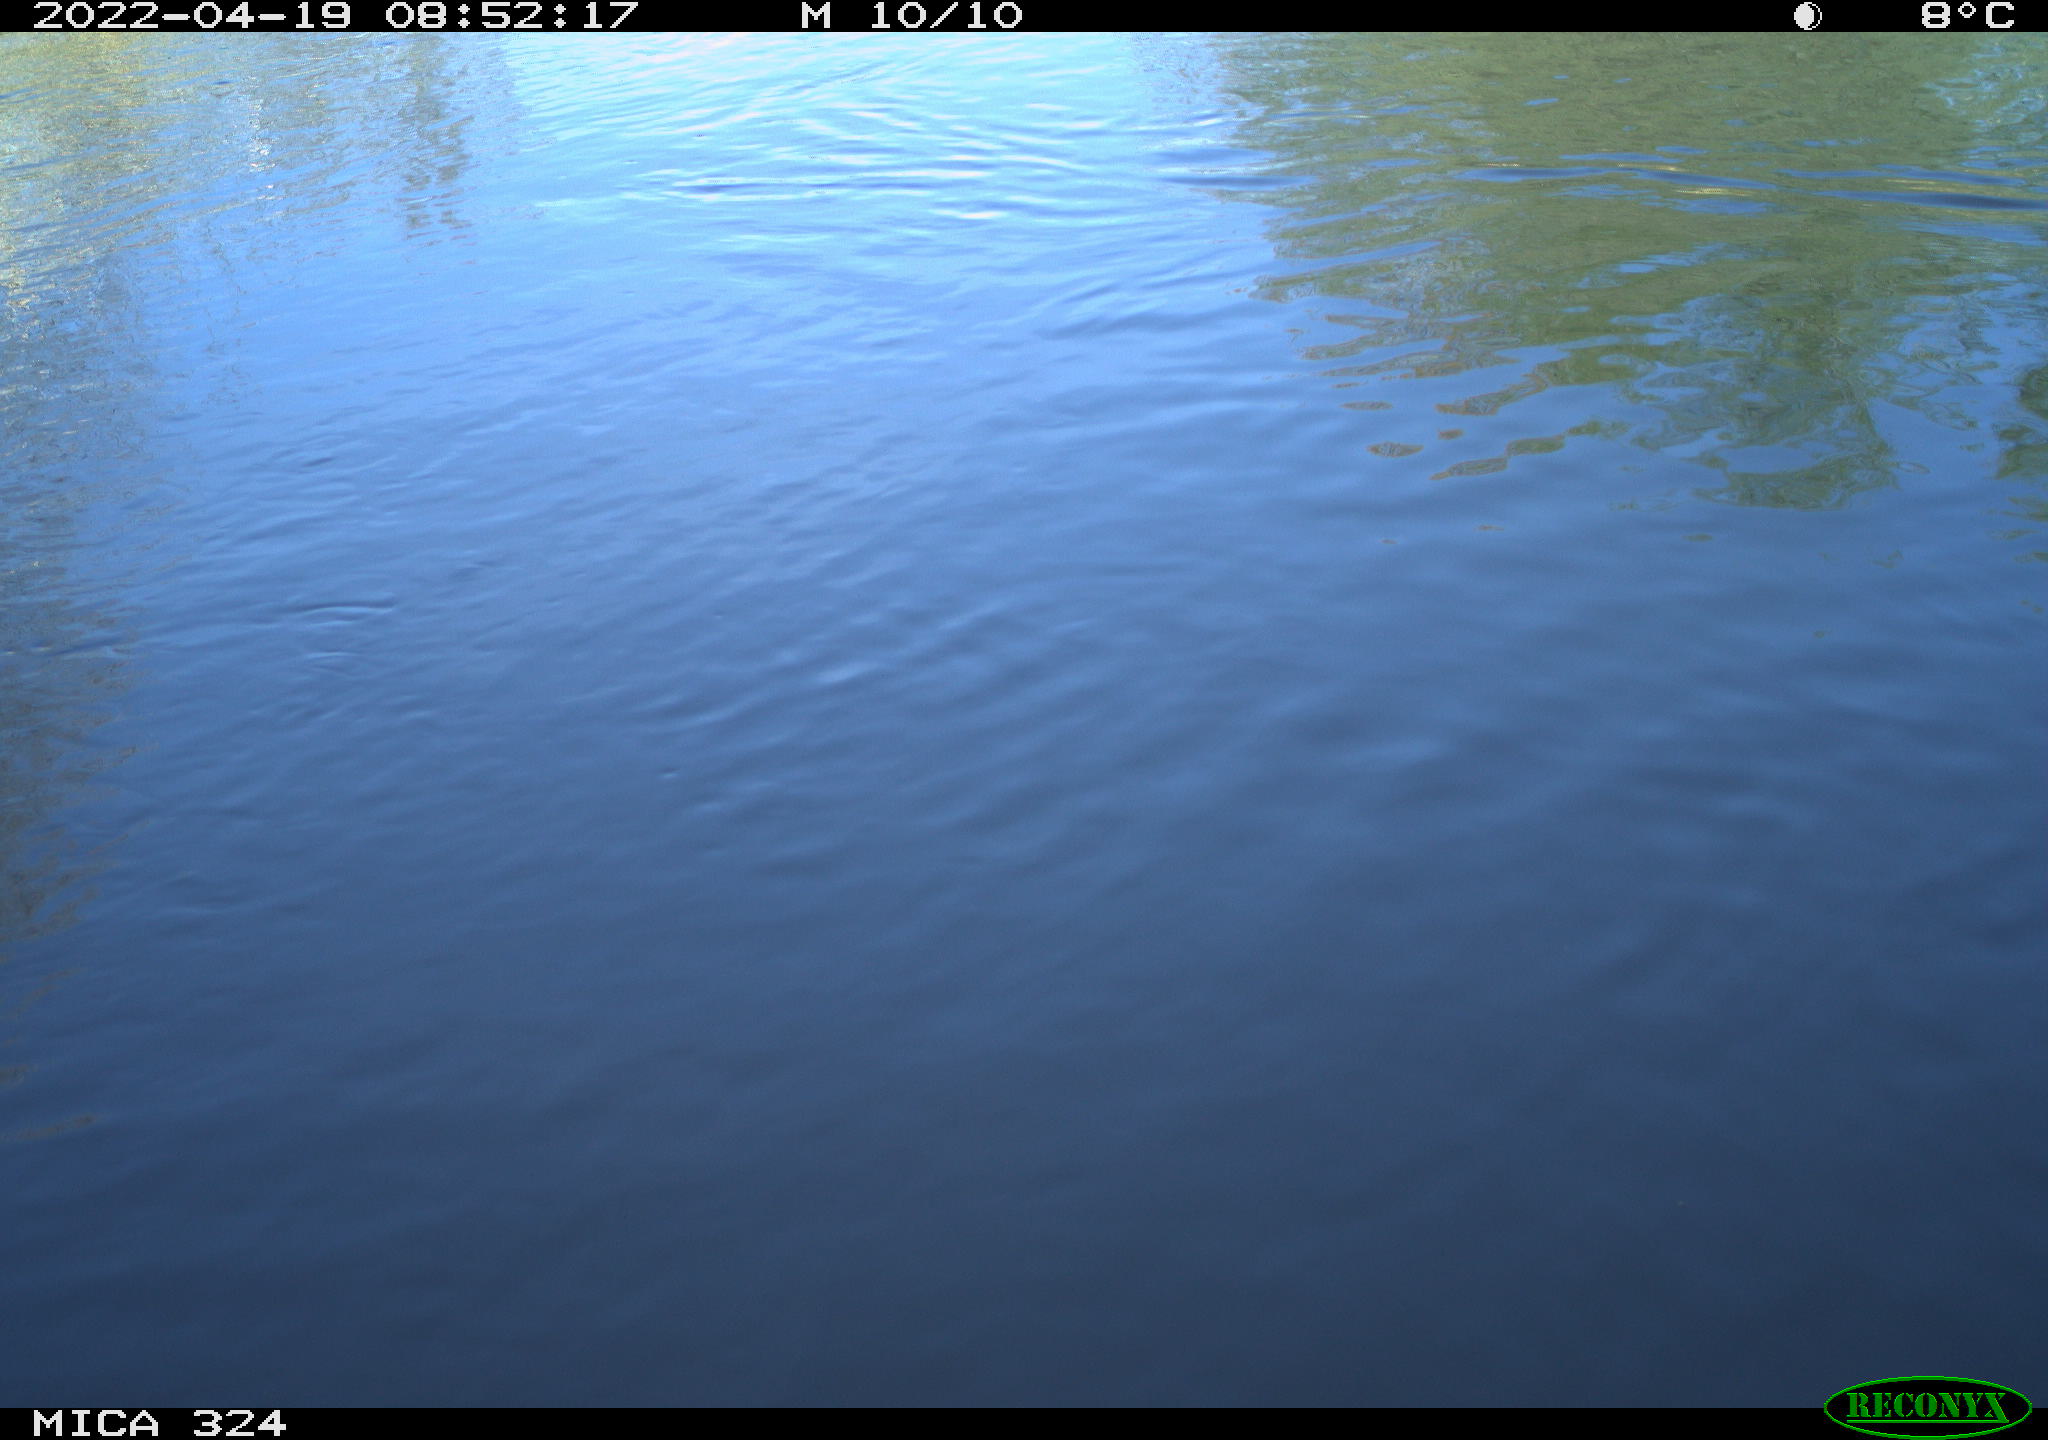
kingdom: Animalia
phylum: Chordata
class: Aves
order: Gruiformes
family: Rallidae
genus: Gallinula
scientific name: Gallinula chloropus
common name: Common moorhen
